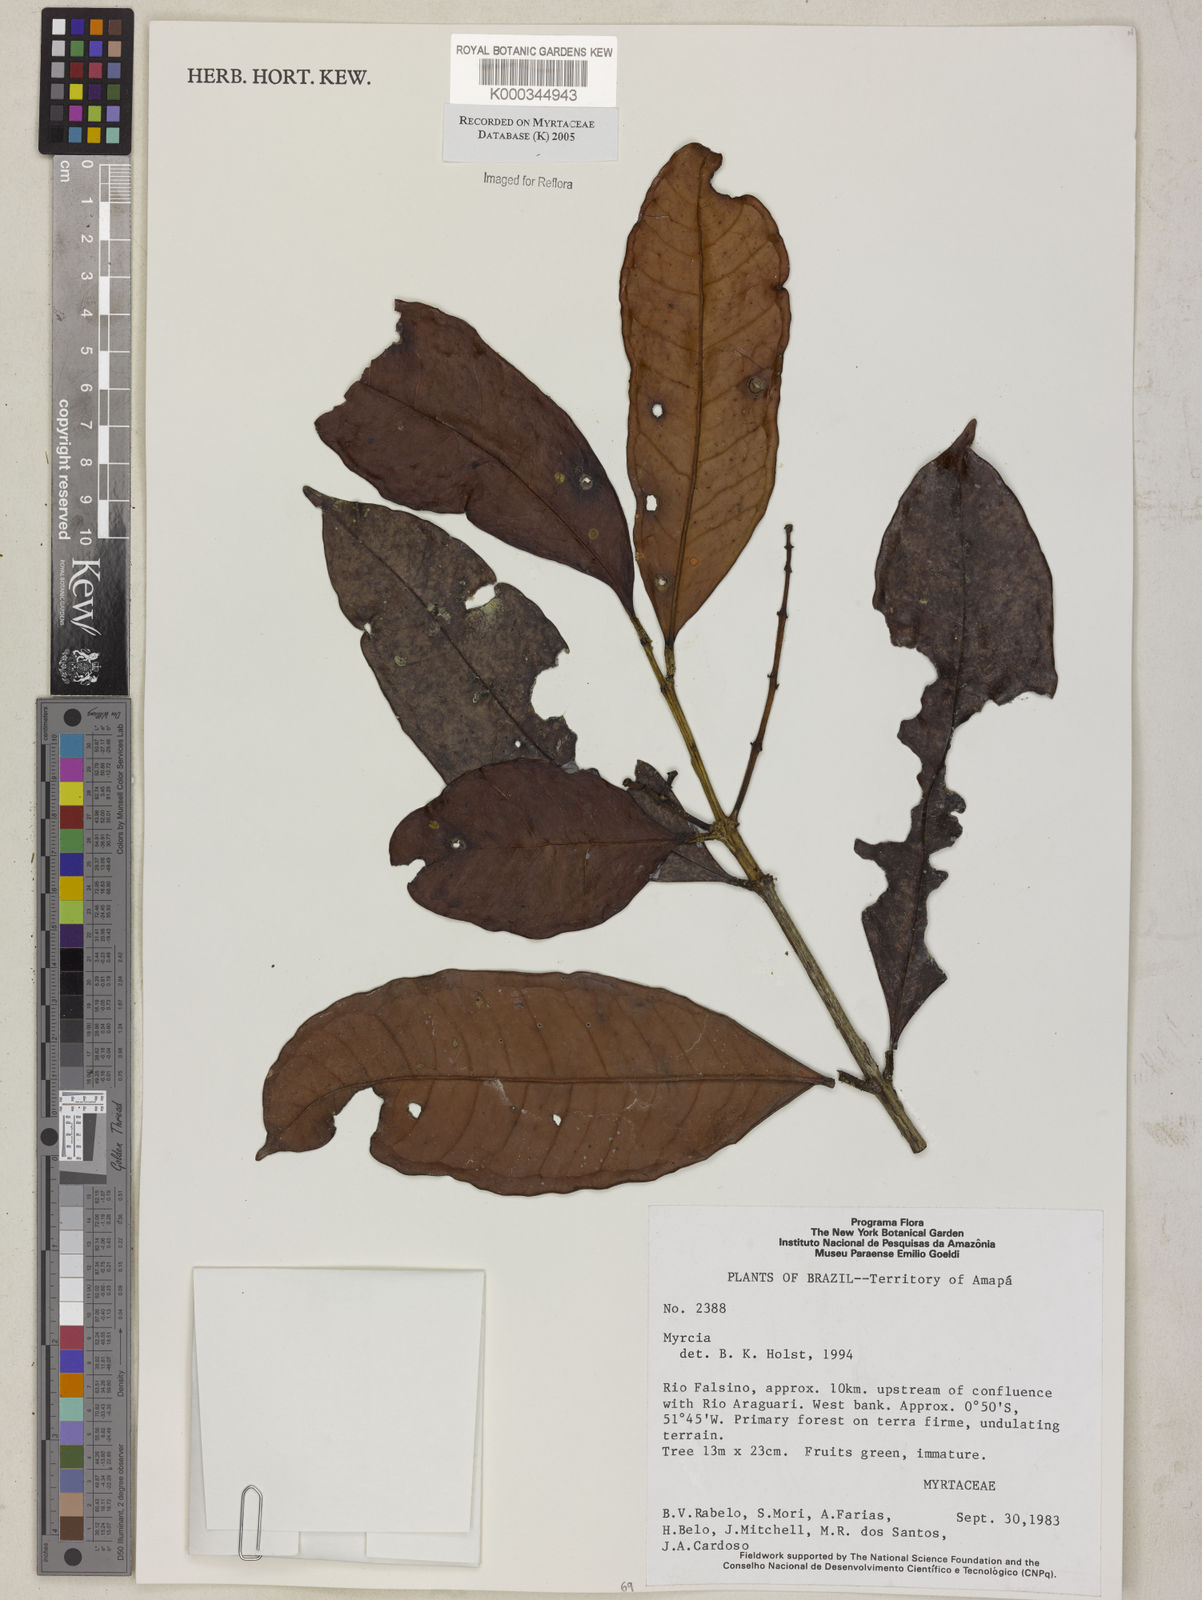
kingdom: Plantae
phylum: Tracheophyta
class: Magnoliopsida
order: Myrtales
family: Myrtaceae
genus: Myrcia
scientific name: Myrcia
